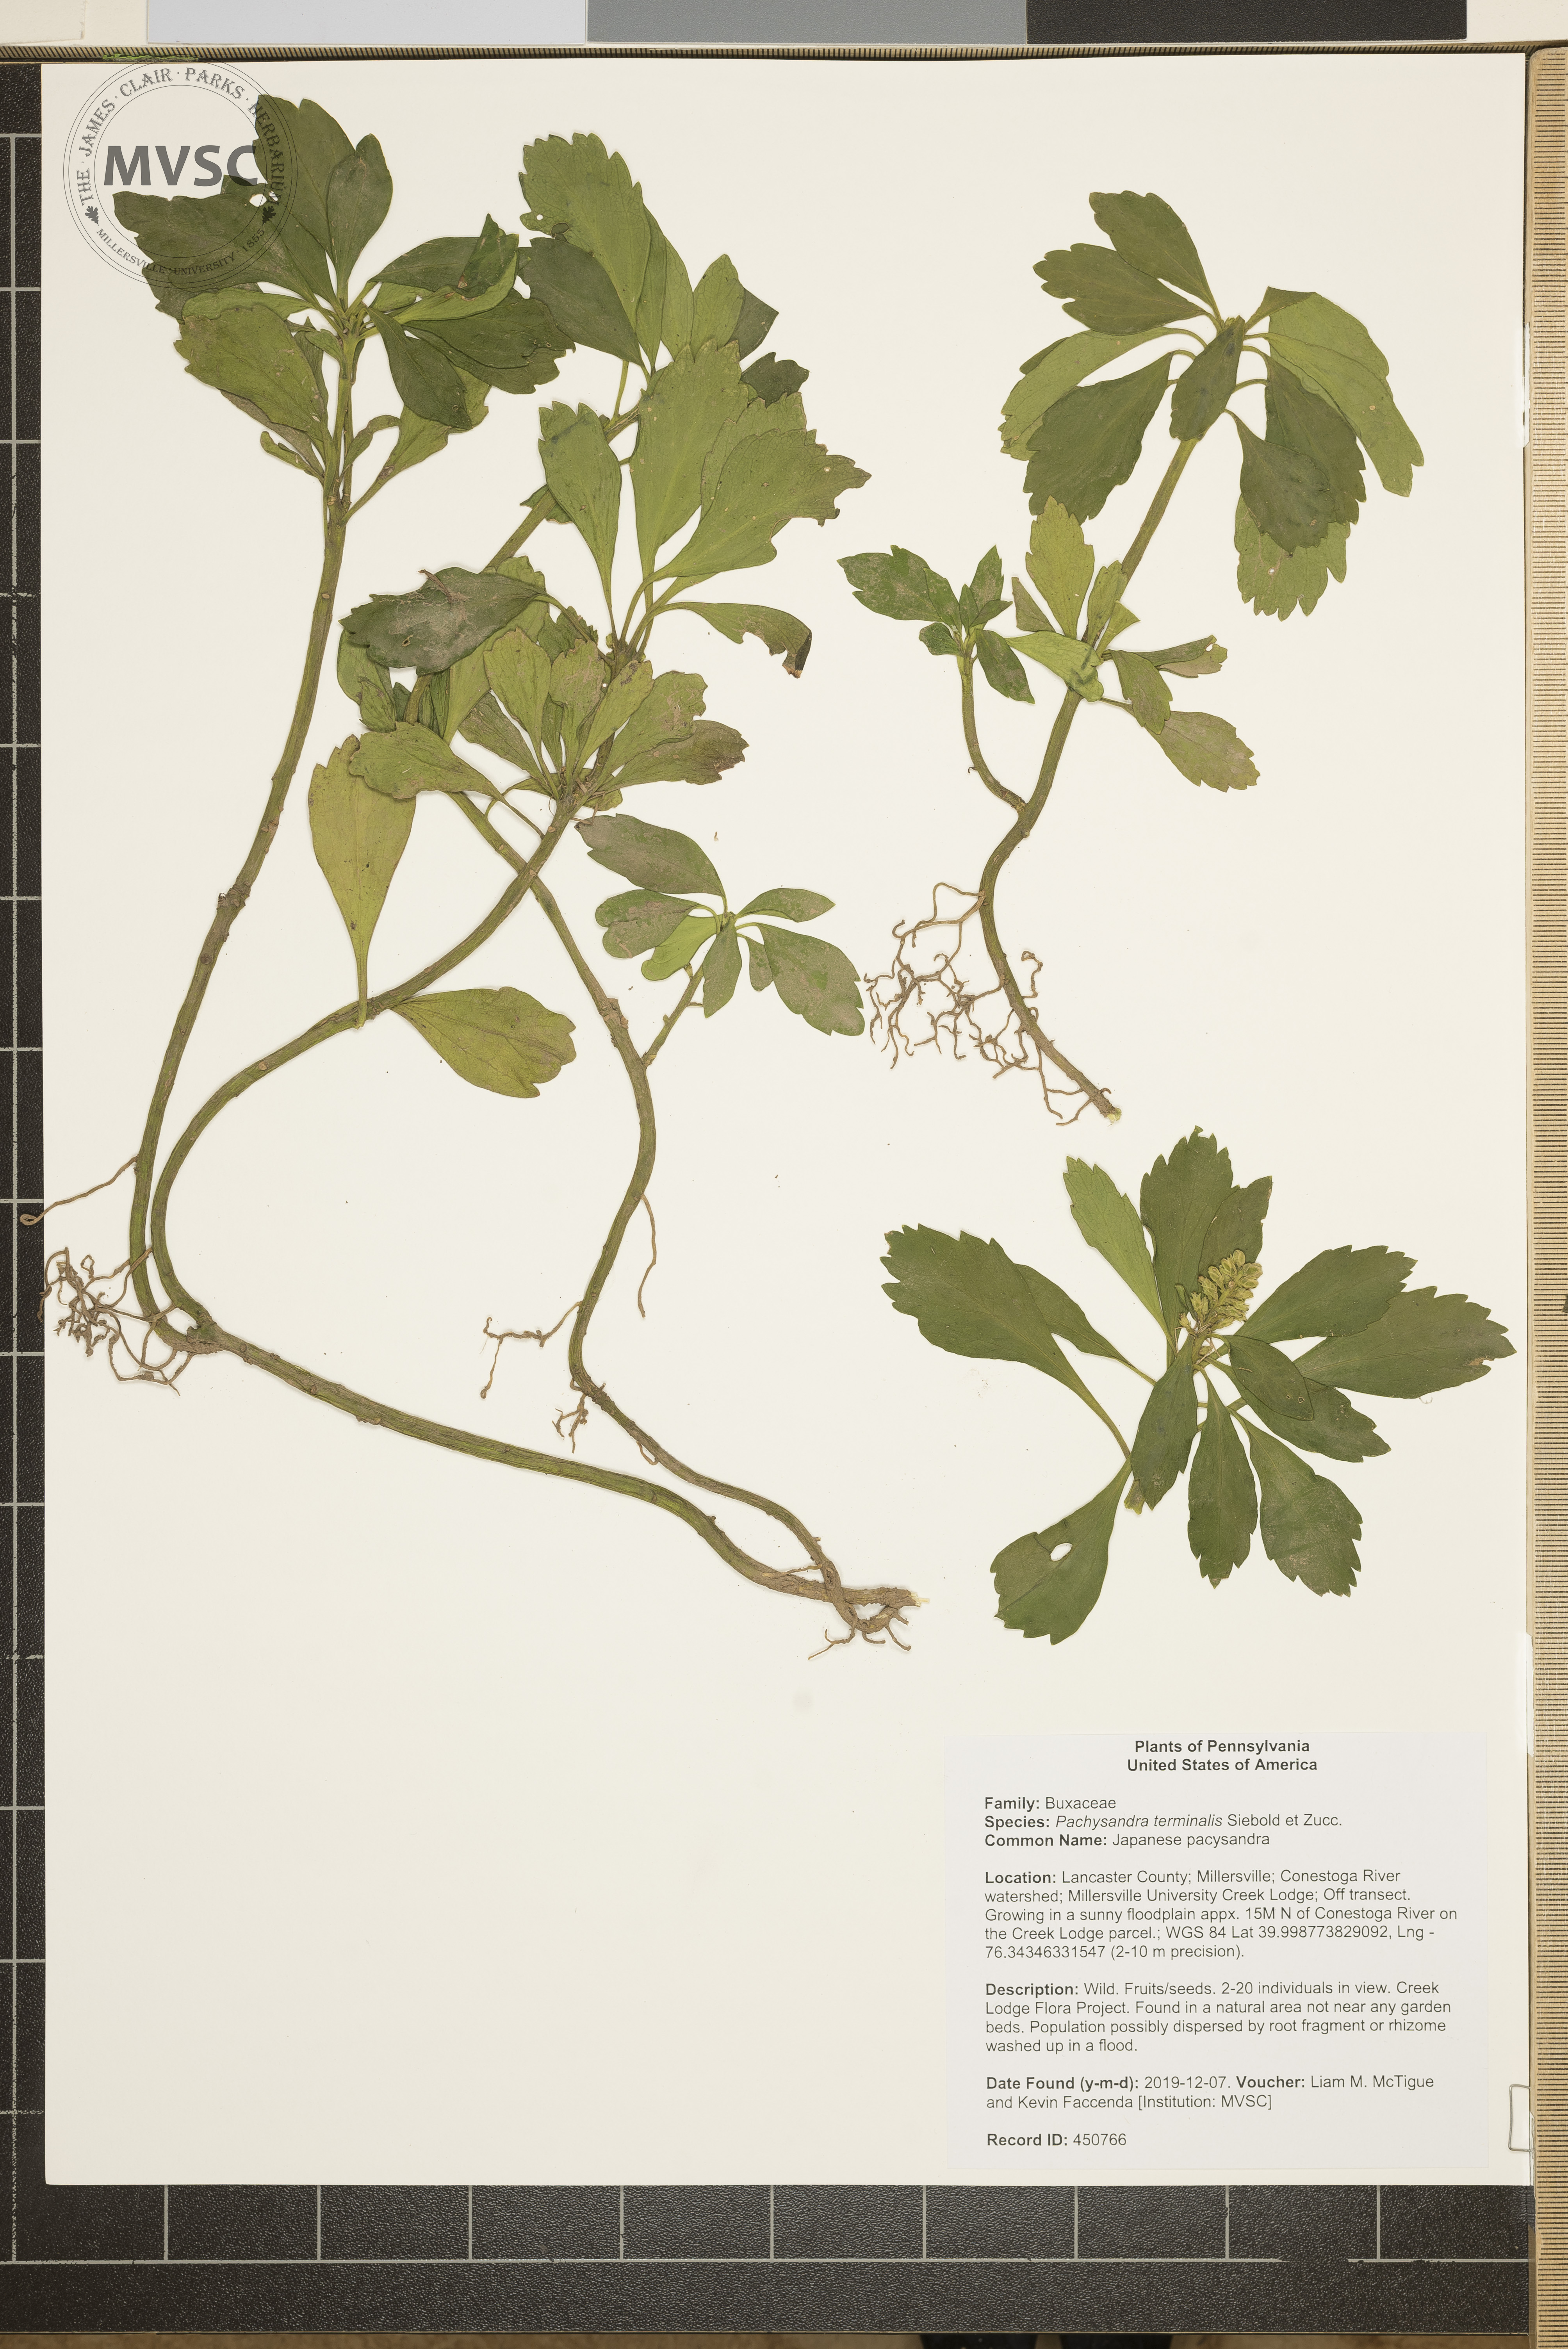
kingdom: Plantae
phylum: Tracheophyta
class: Magnoliopsida
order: Buxales
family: Buxaceae
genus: Pachysandra
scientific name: Pachysandra terminalis
